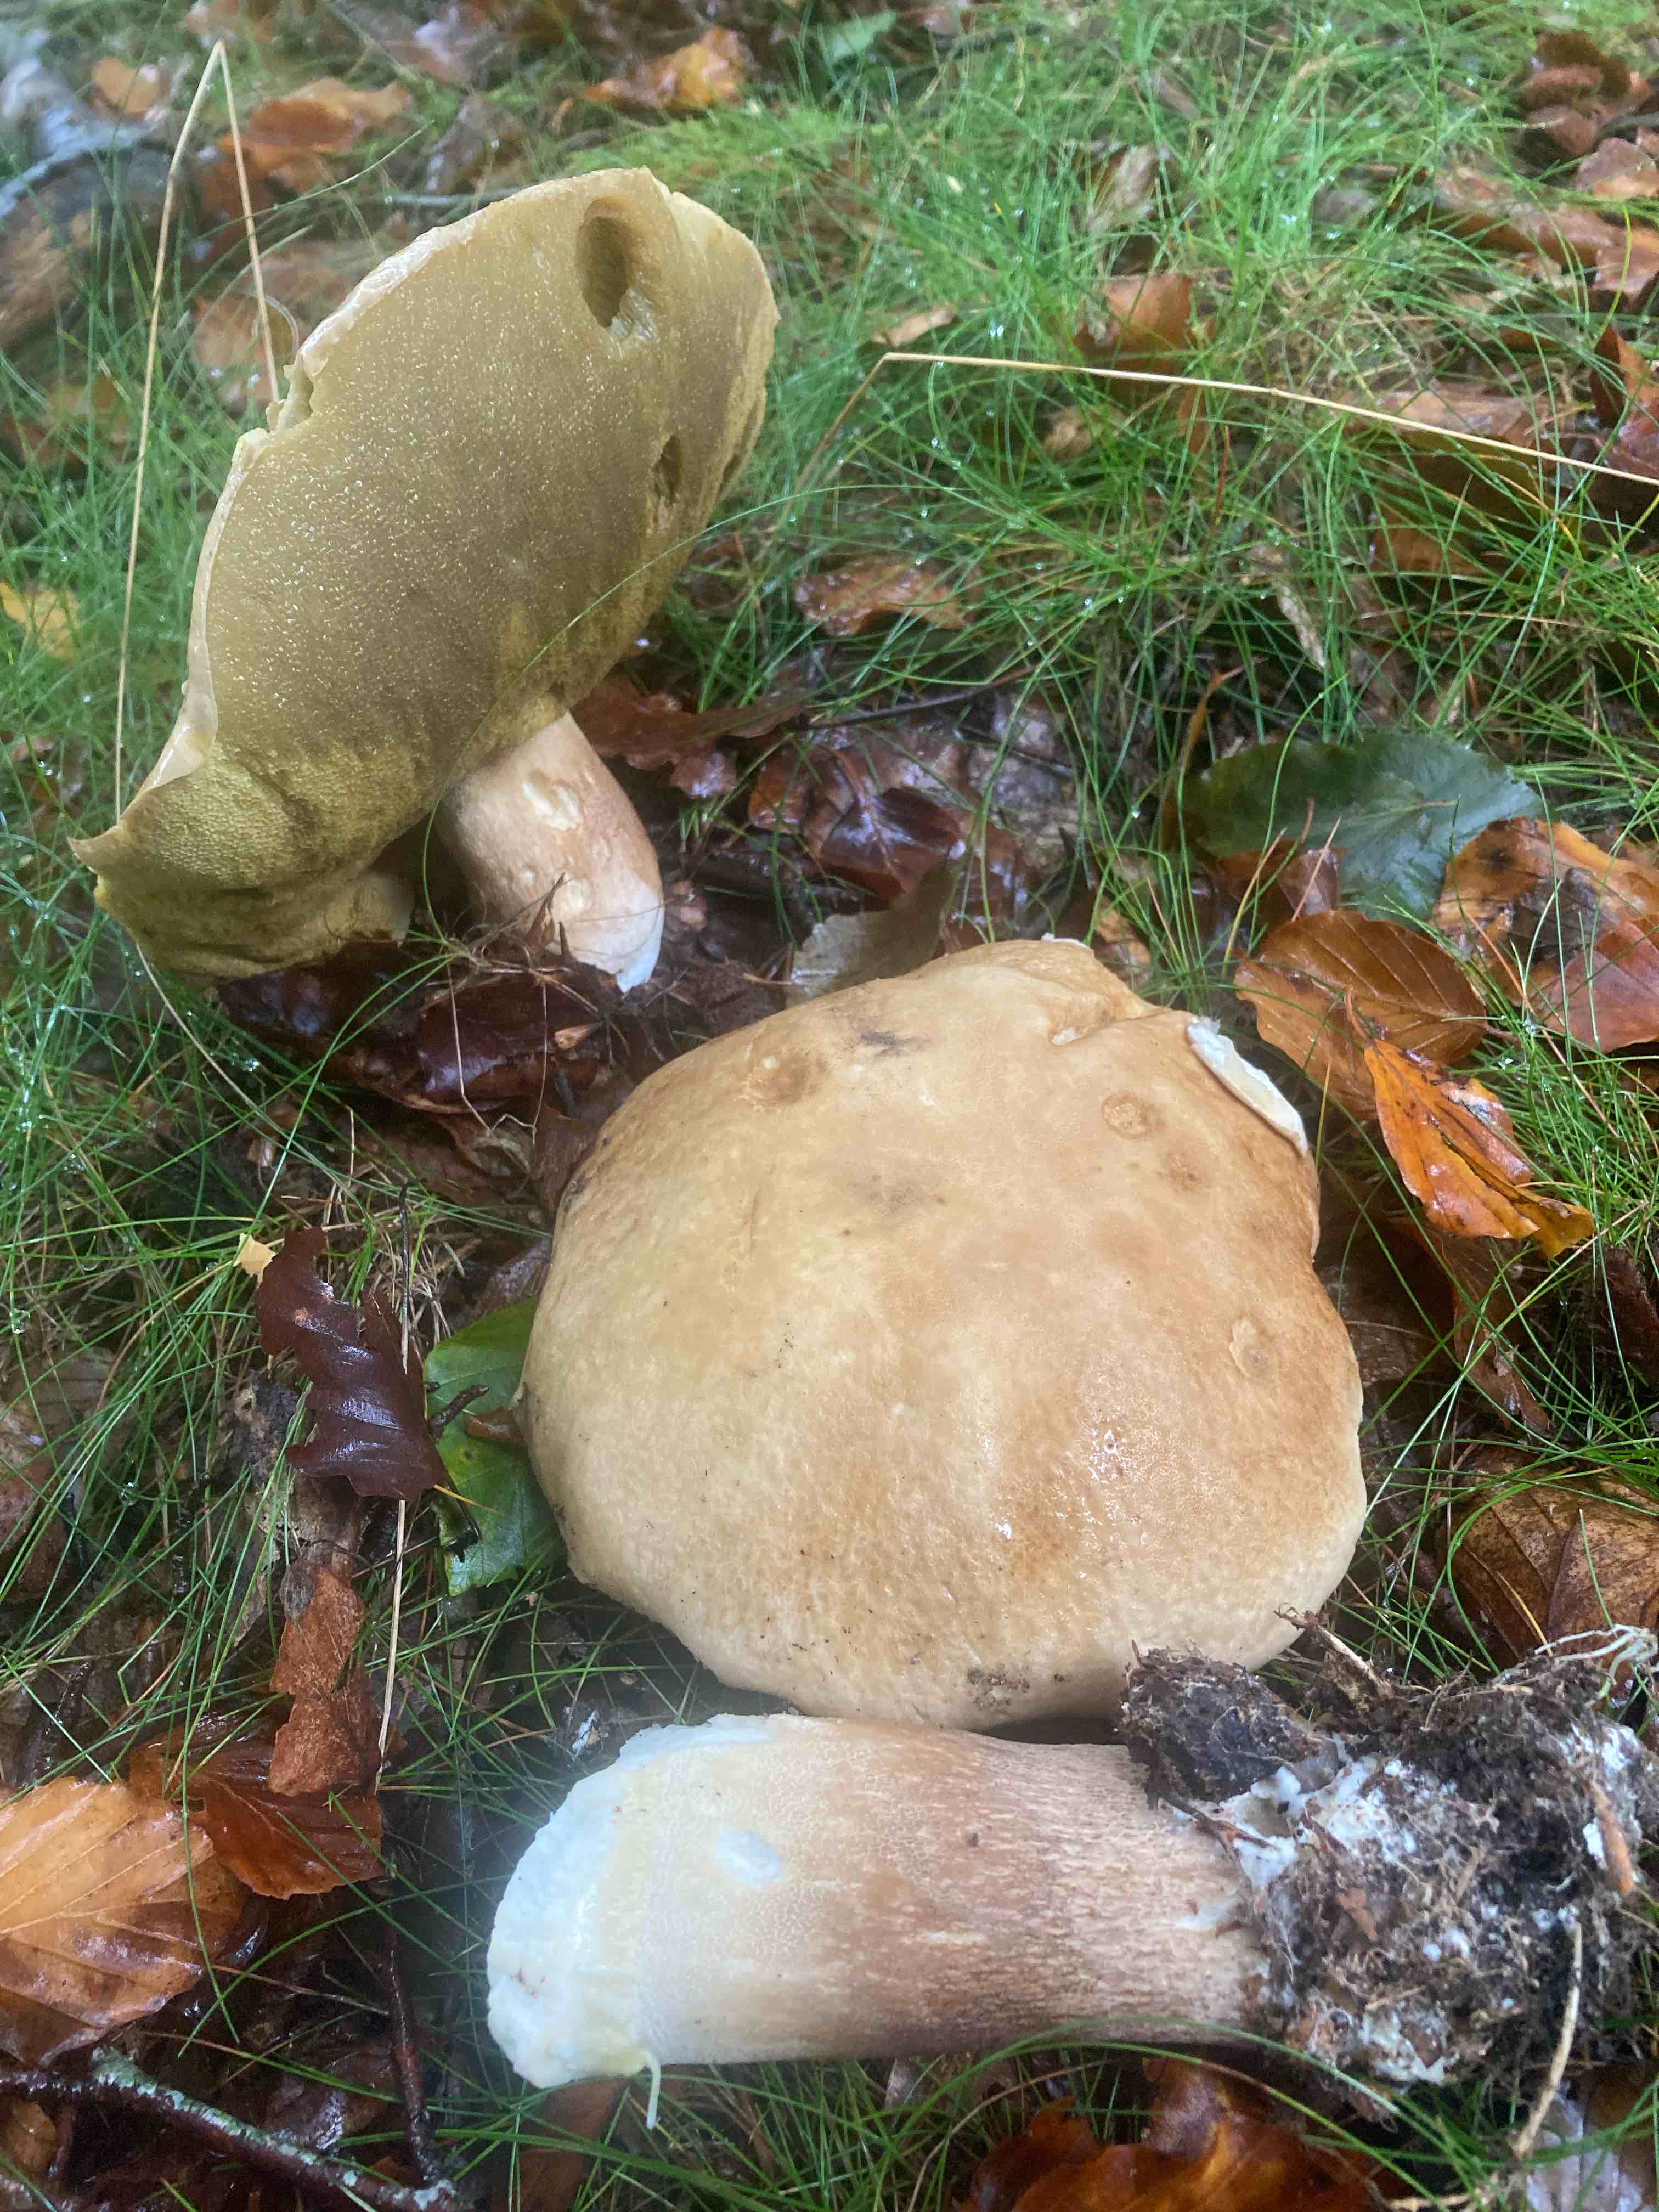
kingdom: Fungi
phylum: Basidiomycota
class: Agaricomycetes
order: Boletales
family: Boletaceae
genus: Boletus
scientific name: Boletus edulis
